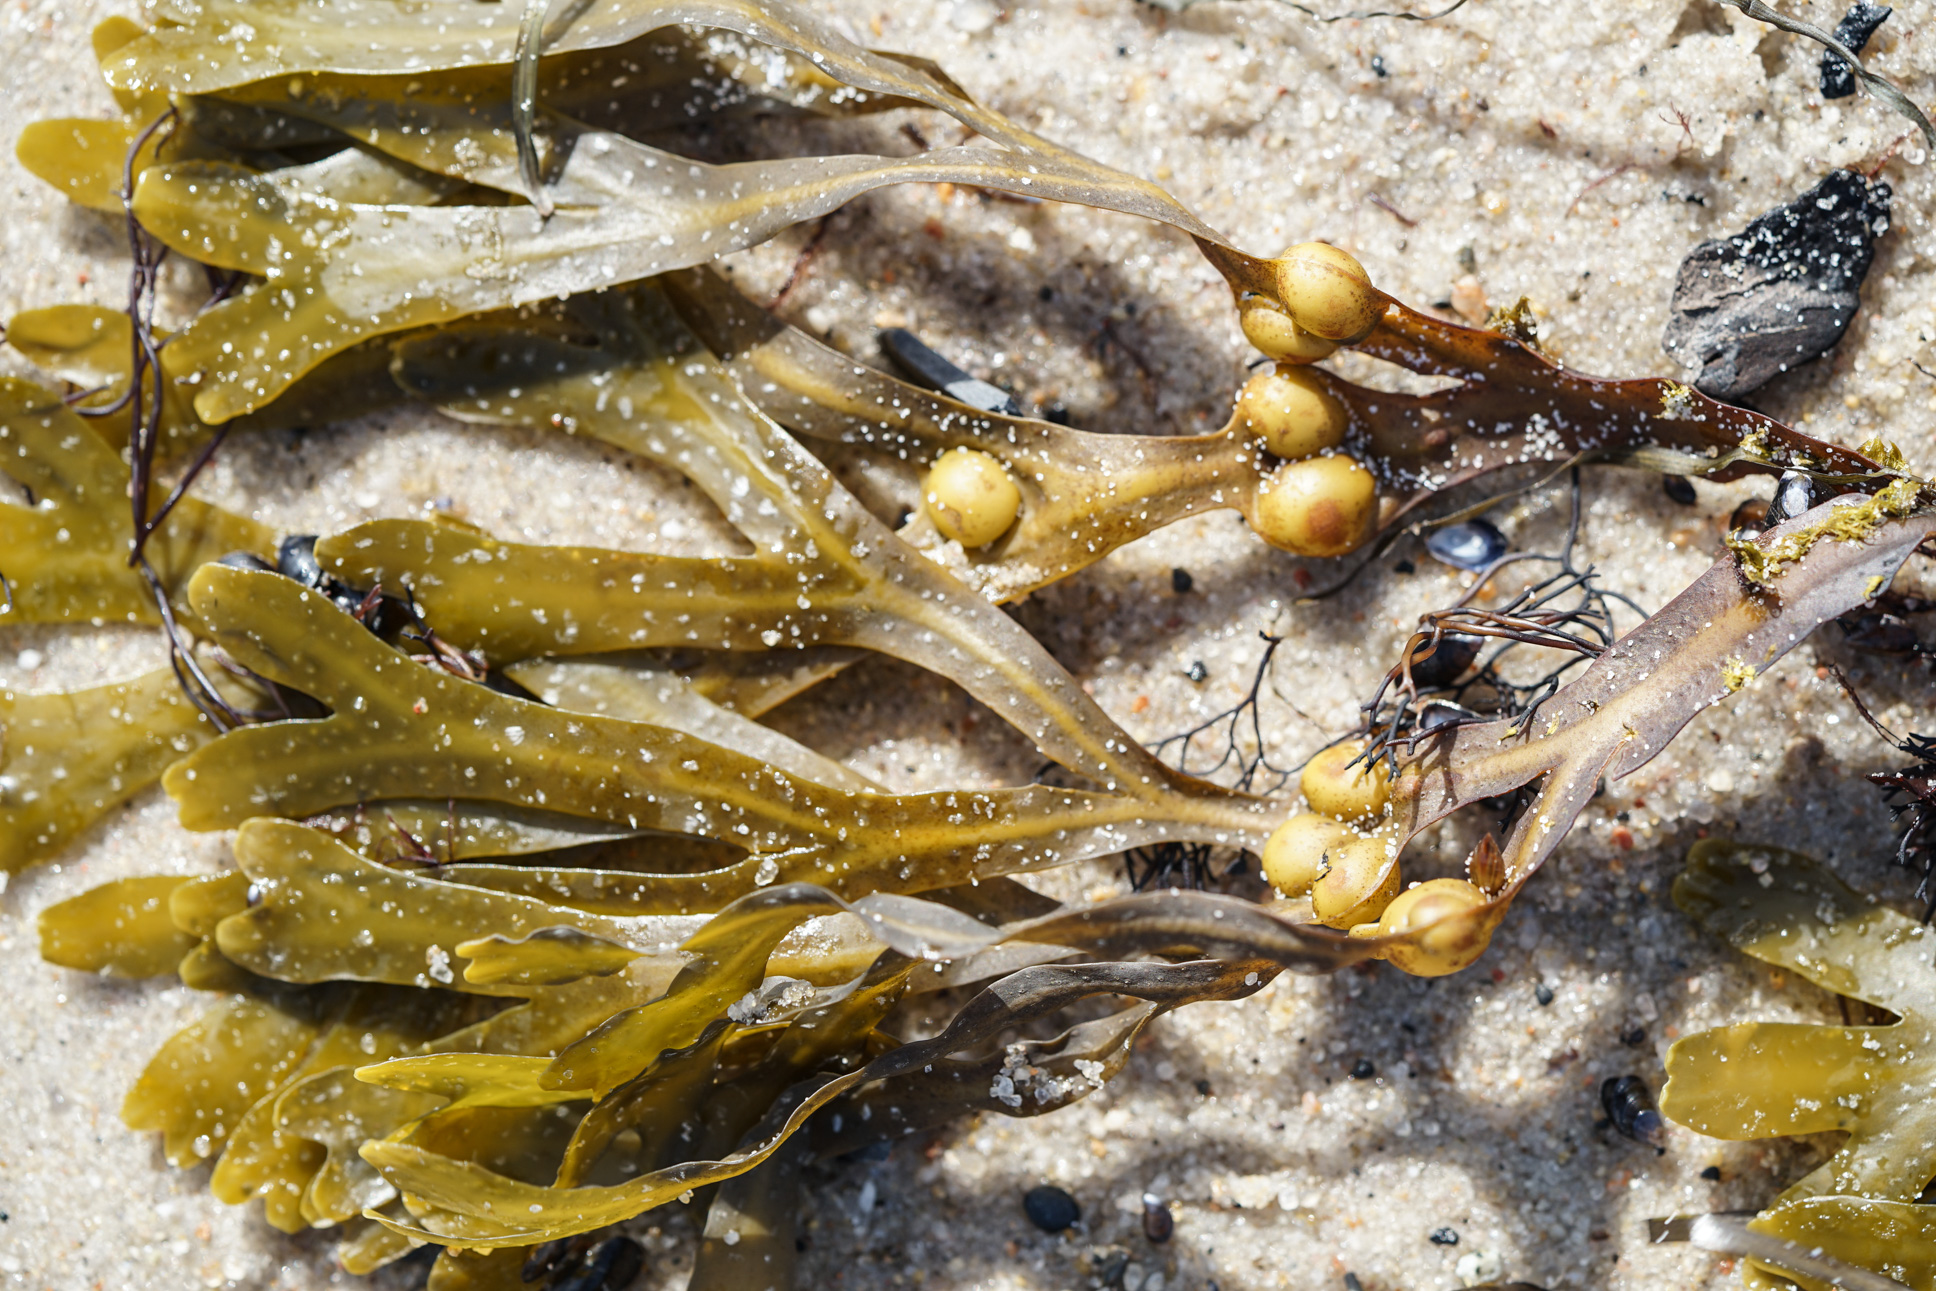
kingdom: Chromista
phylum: Ochrophyta
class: Phaeophyceae
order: Fucales
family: Fucaceae
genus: Fucus
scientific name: Fucus vesiculosus
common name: Bladder wrack
